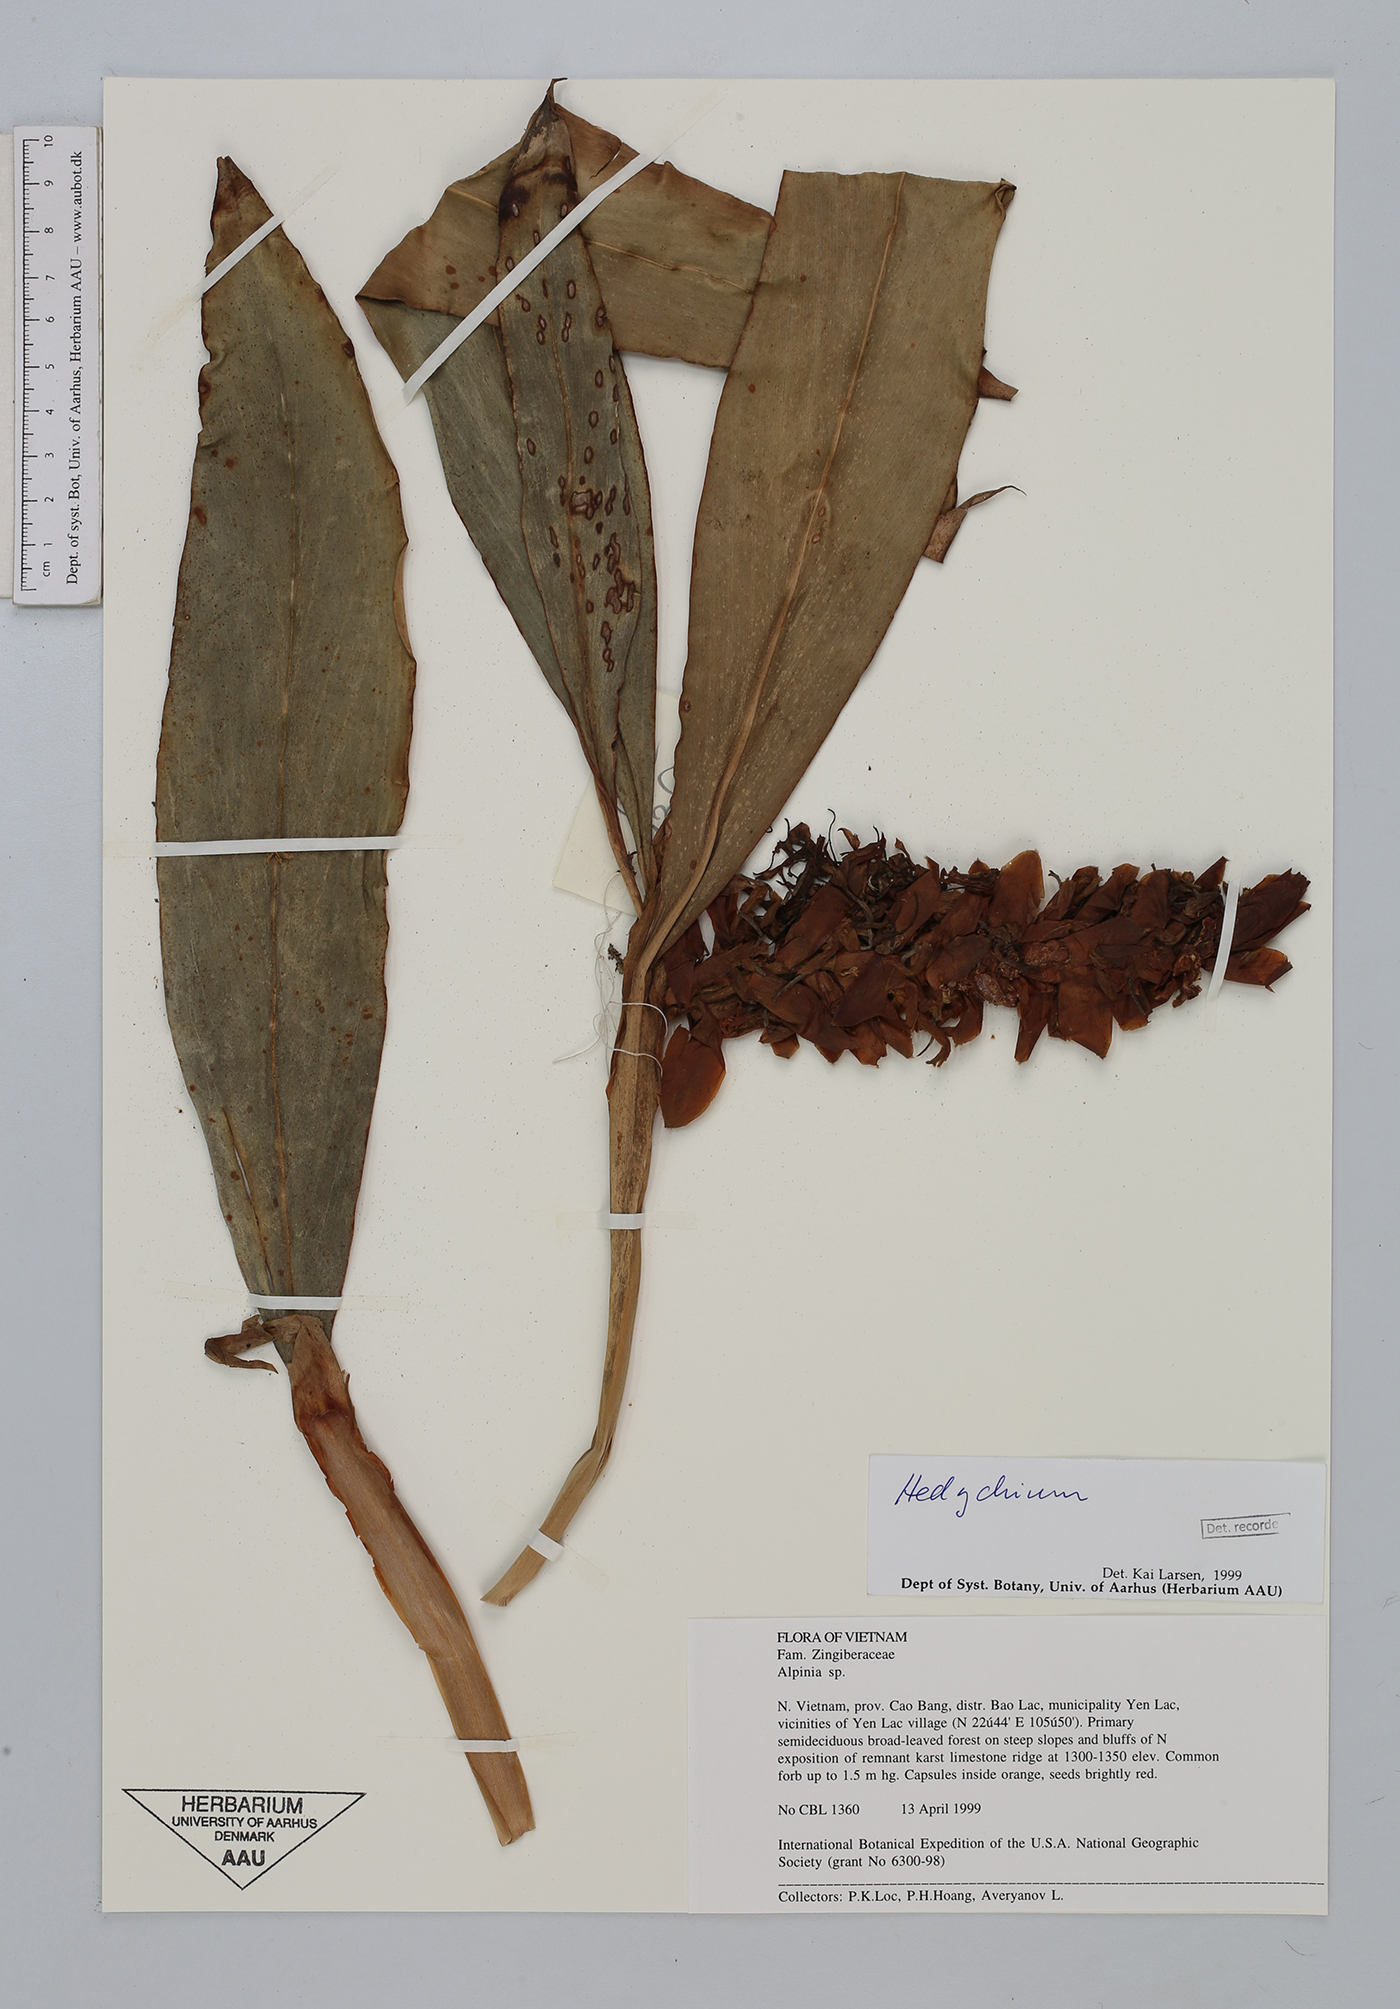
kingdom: Plantae
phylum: Tracheophyta
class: Liliopsida
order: Zingiberales
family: Zingiberaceae
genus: Hedychium
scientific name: Hedychium
